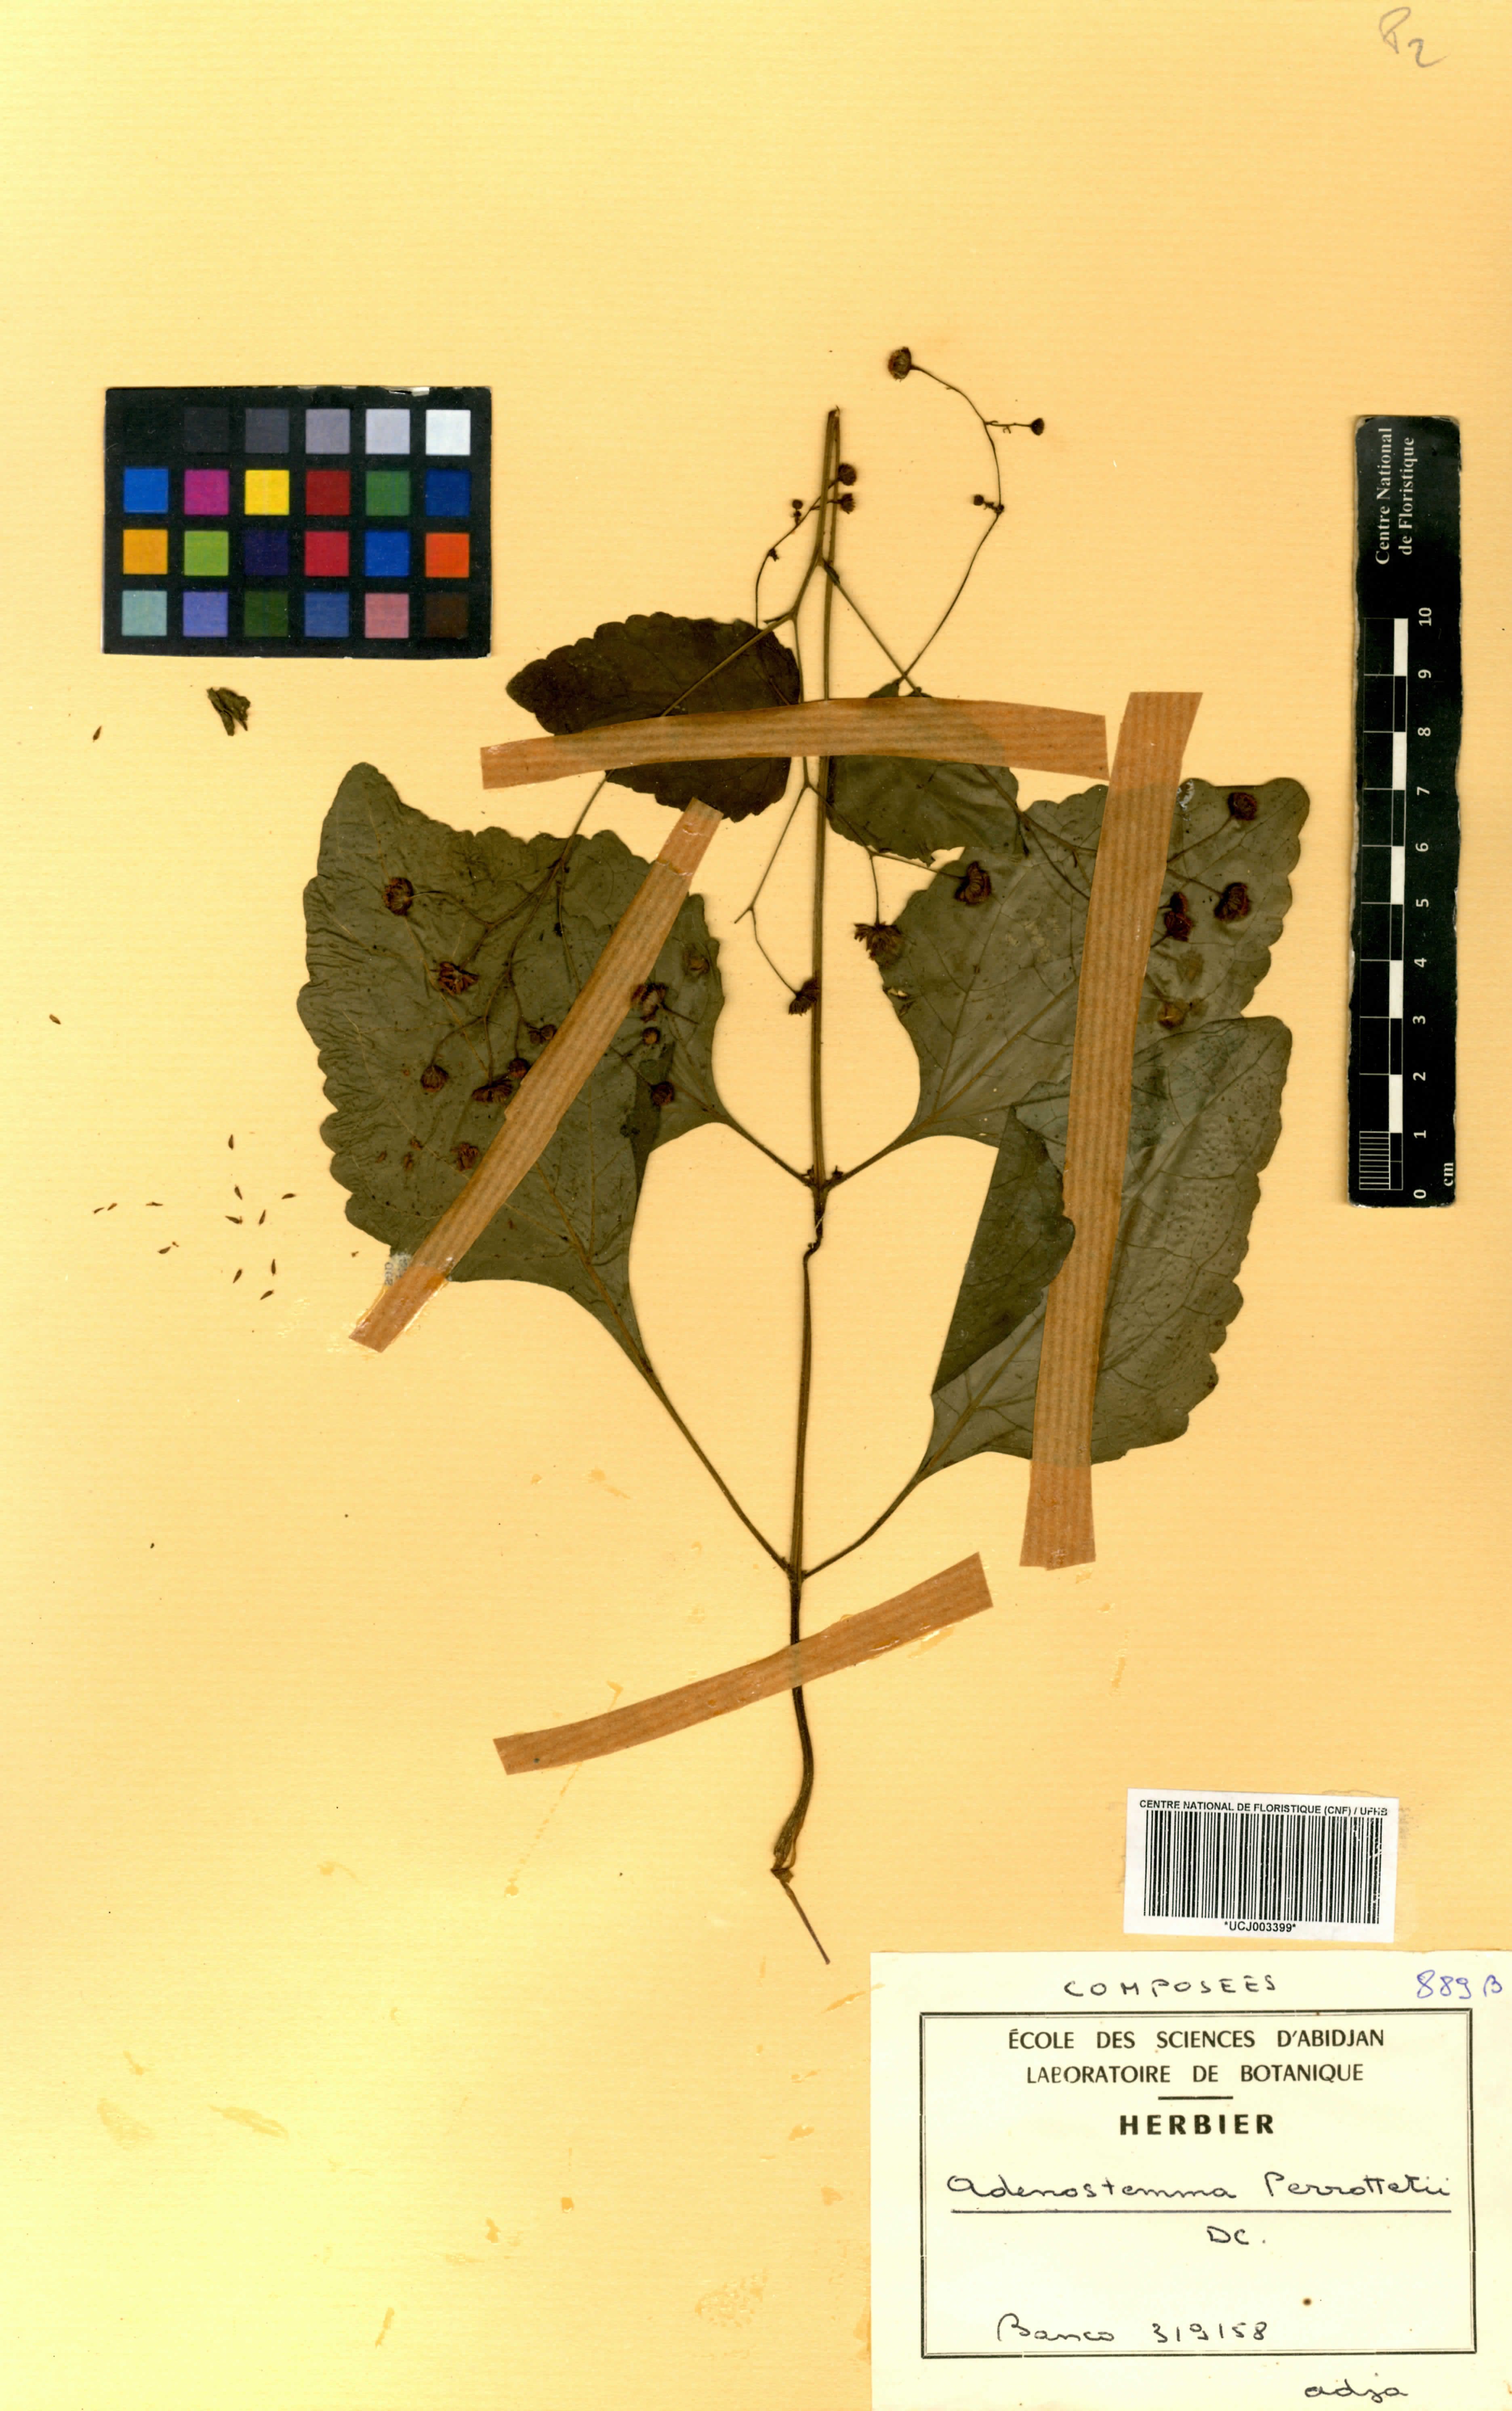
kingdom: Plantae
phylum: Tracheophyta
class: Magnoliopsida
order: Asterales
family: Asteraceae
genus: Adenostemma
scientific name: Adenostemma viscosum
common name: Dungweed
